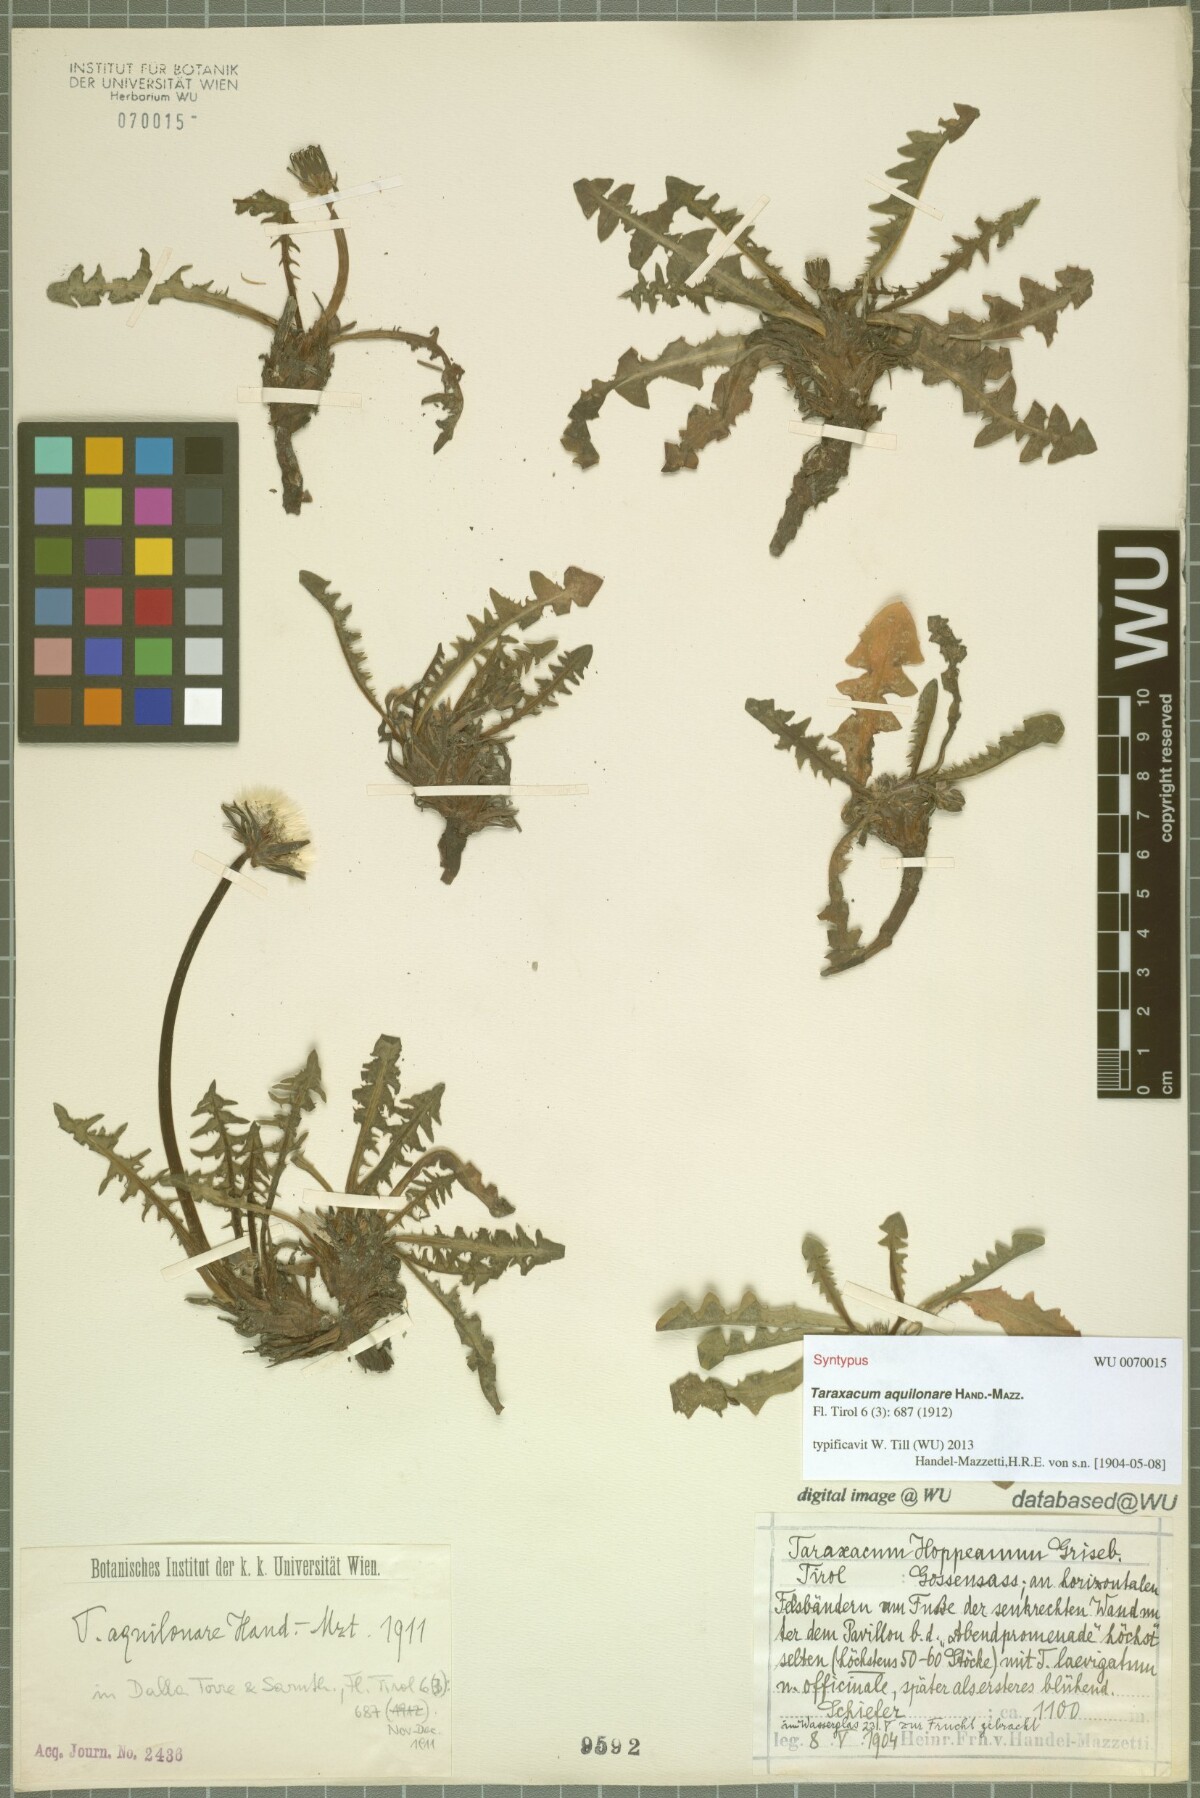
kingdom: Plantae
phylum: Tracheophyta
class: Magnoliopsida
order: Asterales
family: Asteraceae
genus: Taraxacum
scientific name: Taraxacum aquilonare
